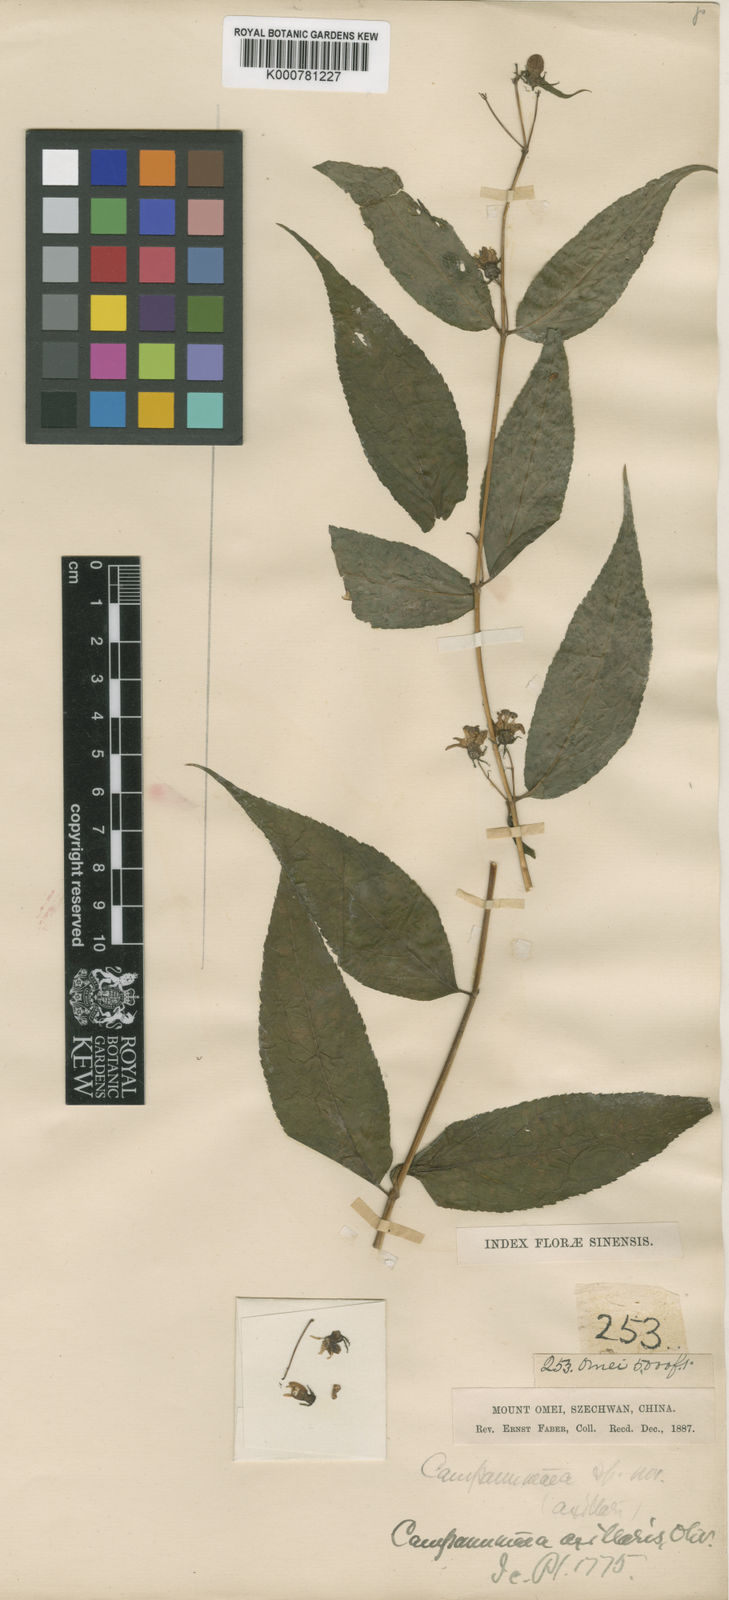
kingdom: Plantae
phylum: Tracheophyta
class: Magnoliopsida
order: Asterales
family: Campanulaceae
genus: Cyclocodon
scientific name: Cyclocodon lancifolius
